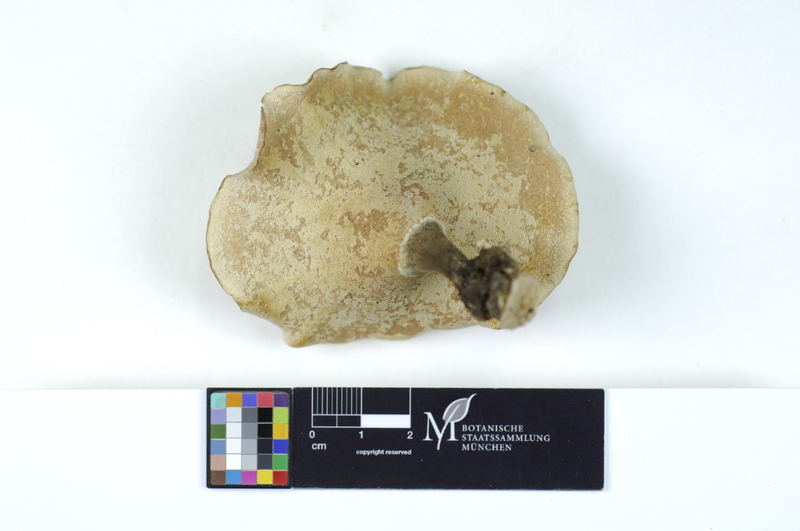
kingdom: Plantae
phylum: Tracheophyta
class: Magnoliopsida
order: Fagales
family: Betulaceae
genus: Betula
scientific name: Betula
